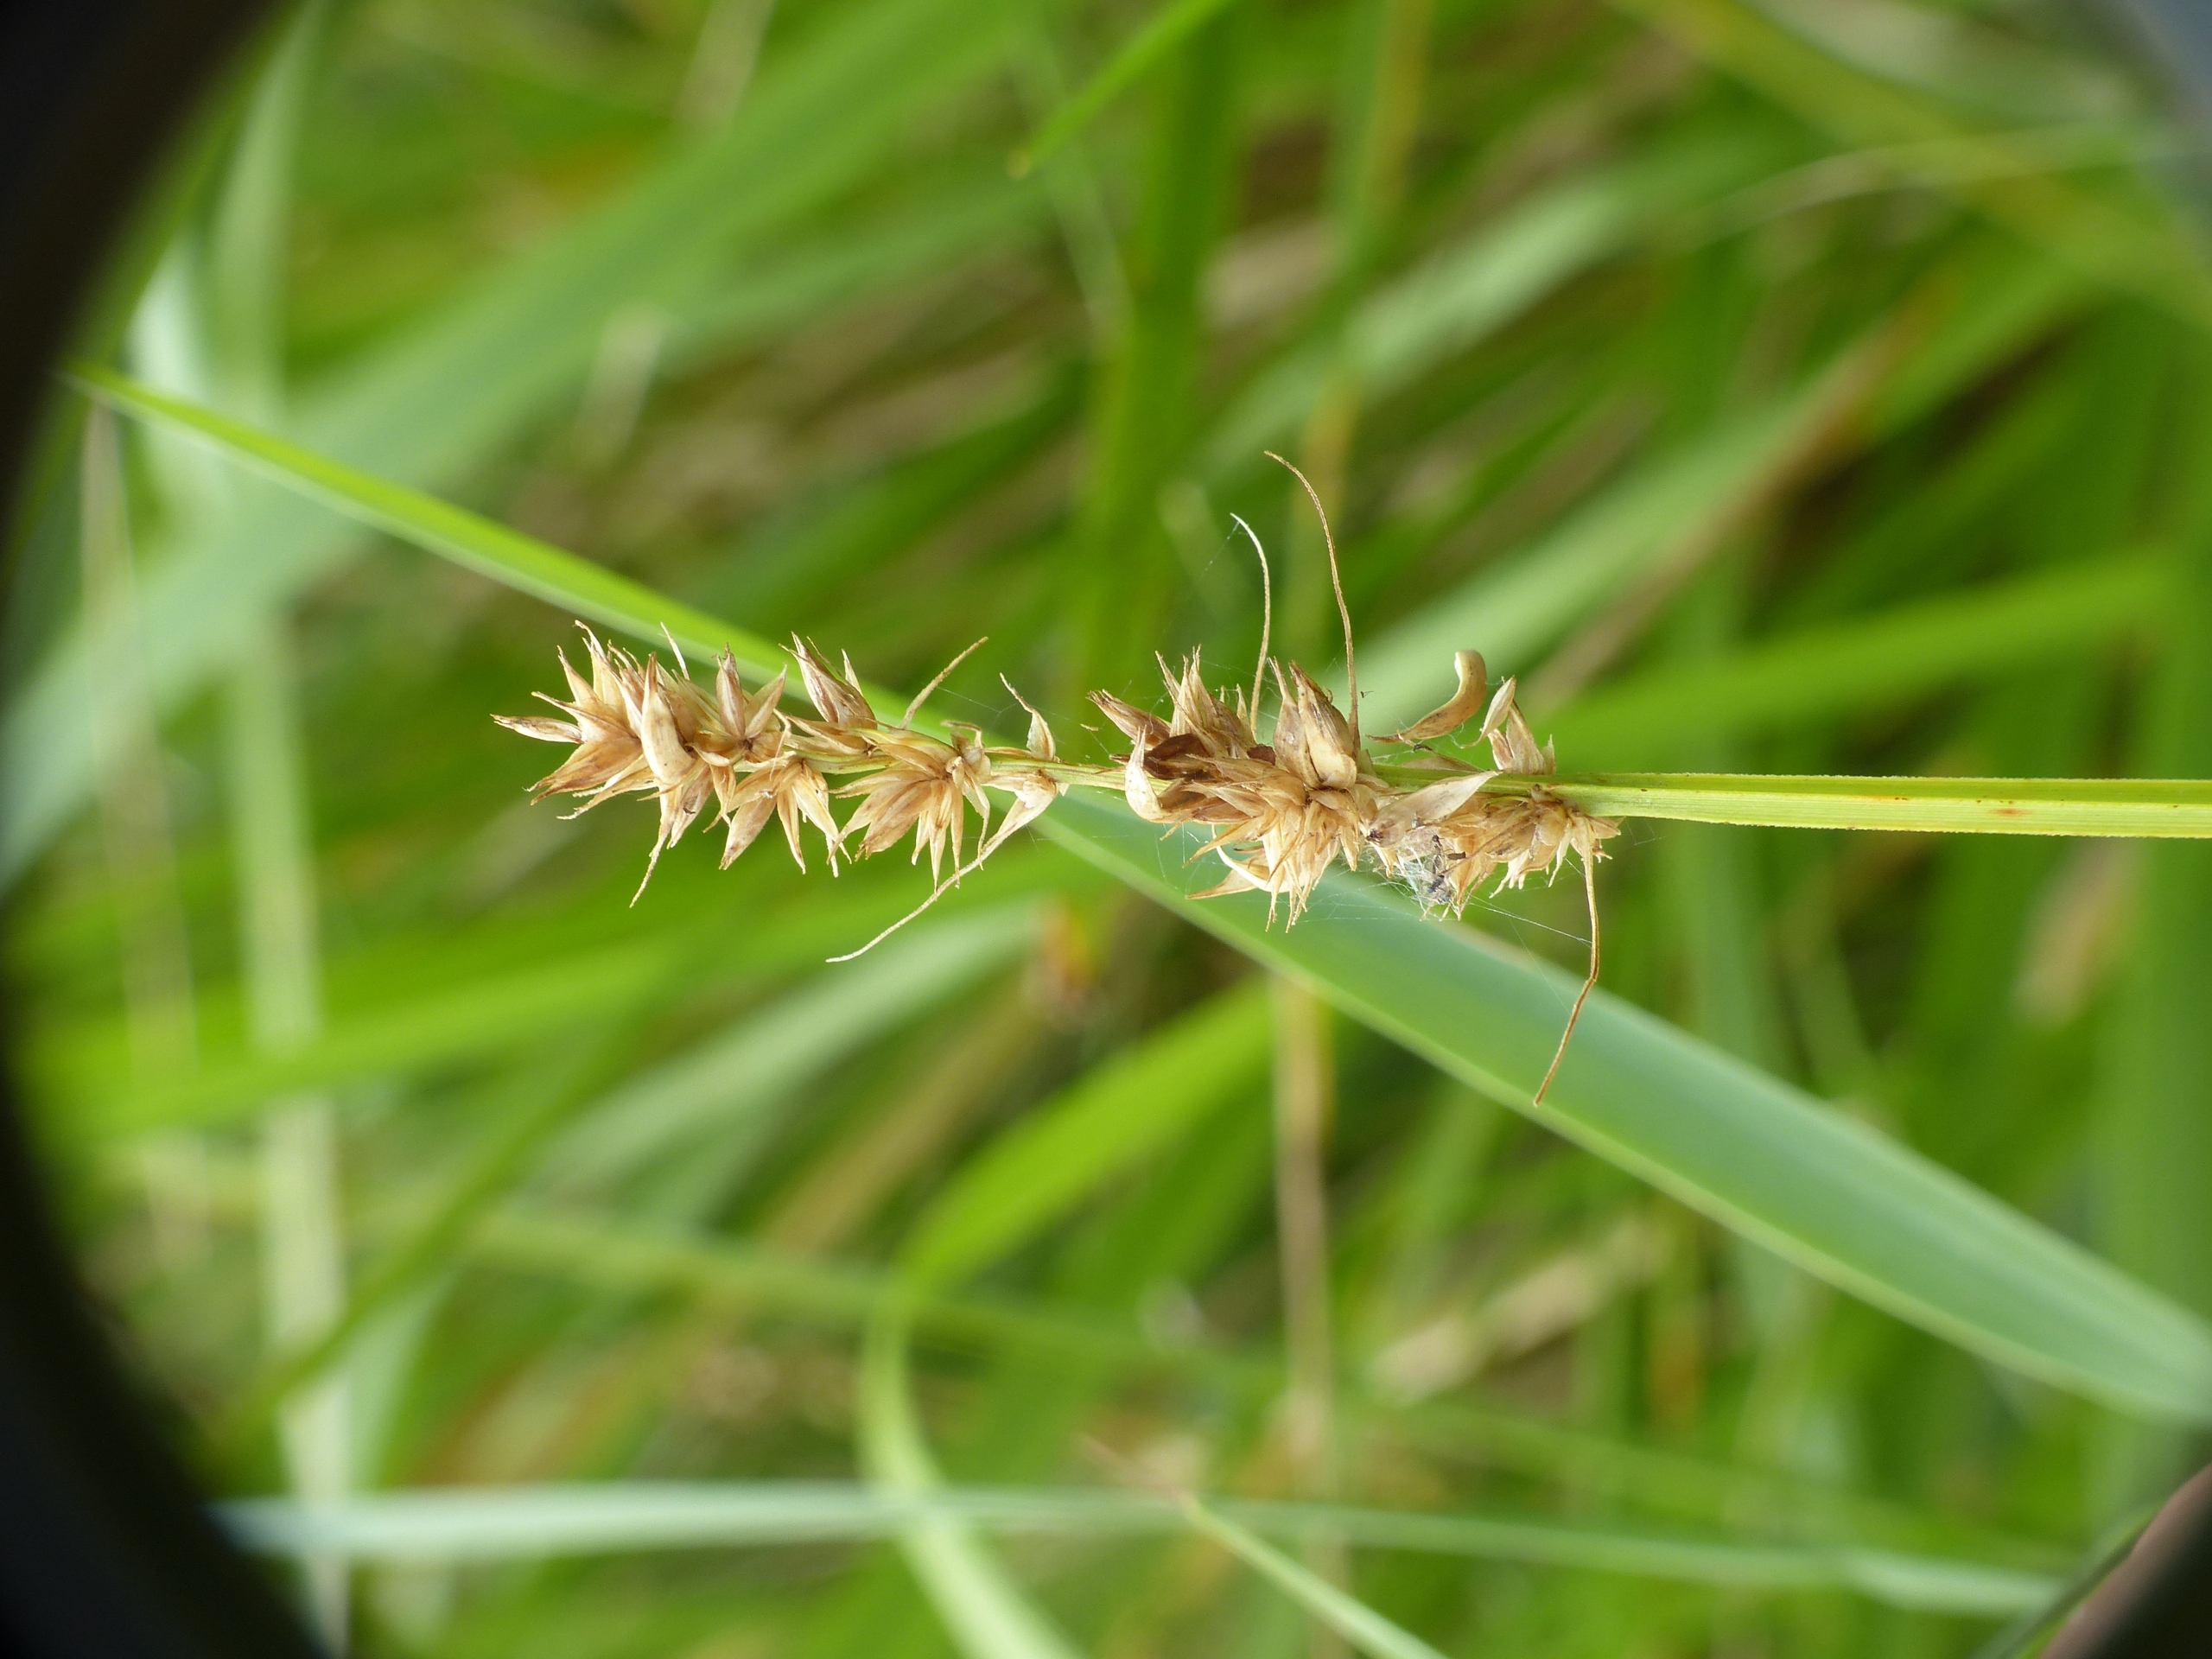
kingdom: Plantae
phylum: Tracheophyta
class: Liliopsida
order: Poales
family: Cyperaceae
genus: Carex
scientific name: Carex otrubae
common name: Sylt-star
